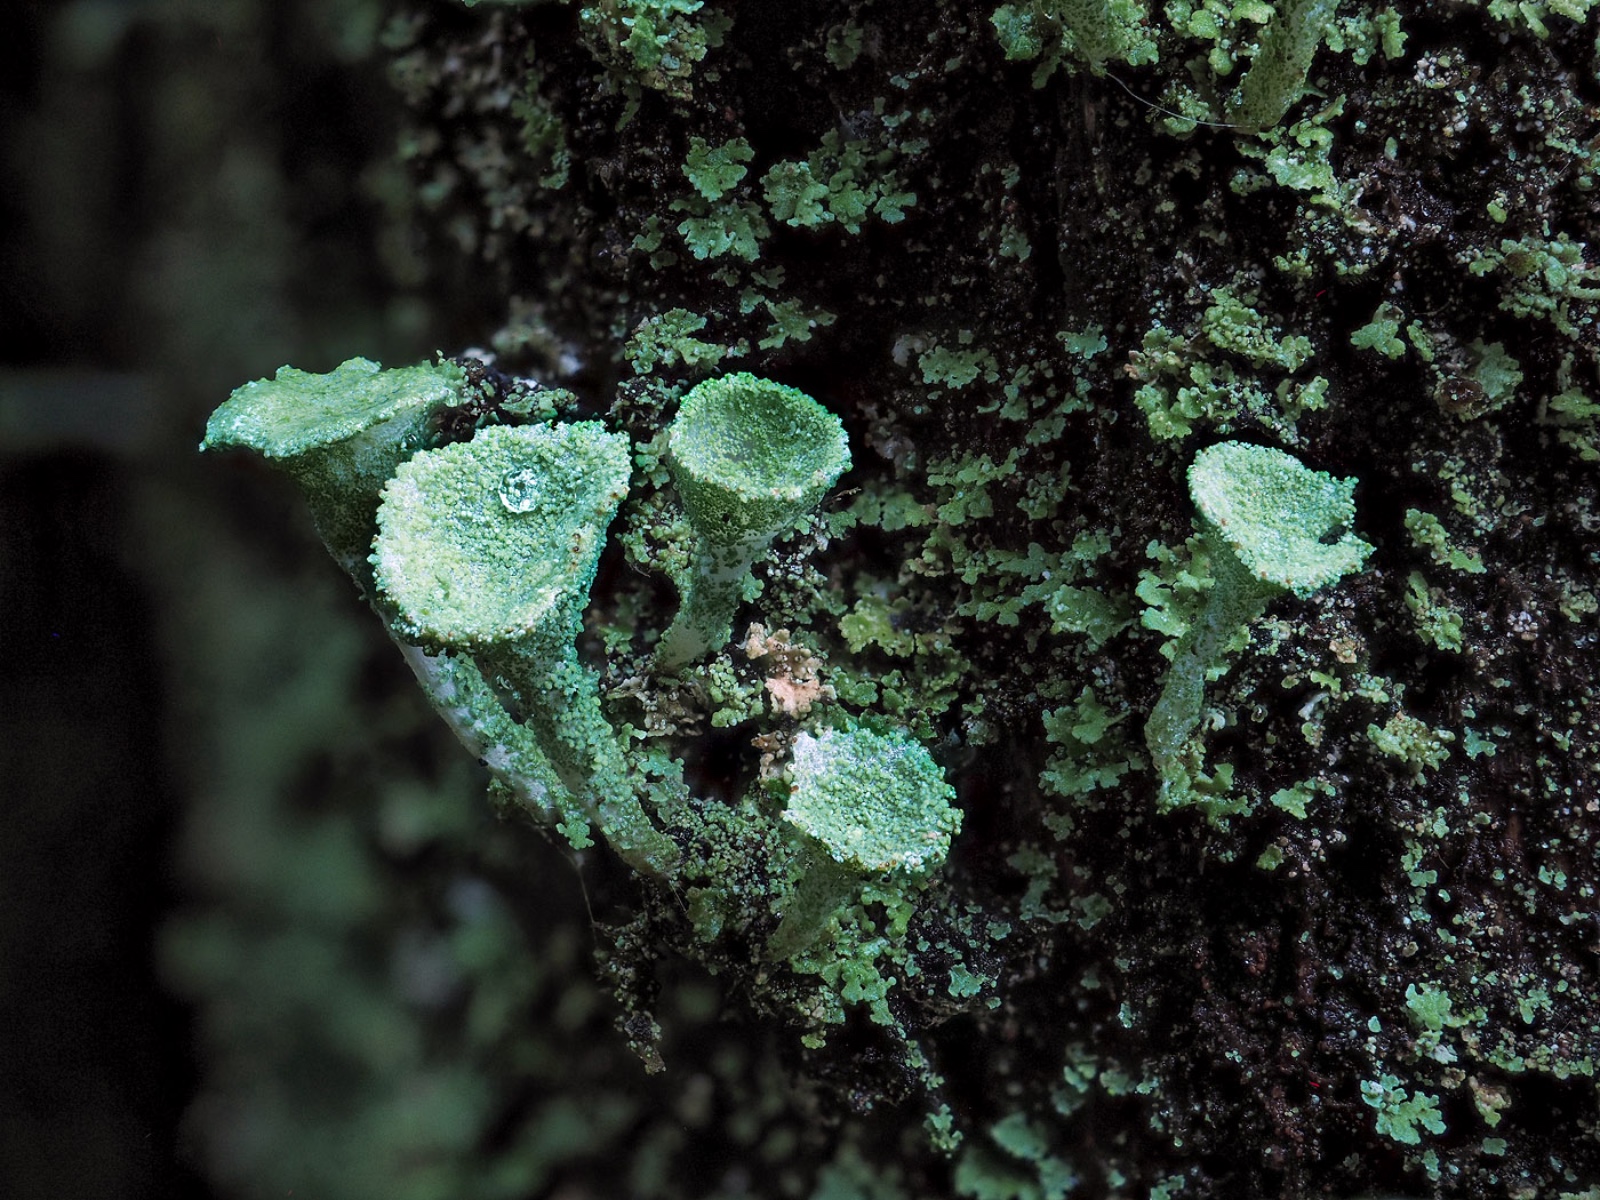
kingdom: Fungi
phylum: Ascomycota
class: Lecanoromycetes
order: Lecanorales
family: Cladoniaceae
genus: Cladonia
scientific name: Cladonia fimbriata
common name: bleggrøn bægerlav
